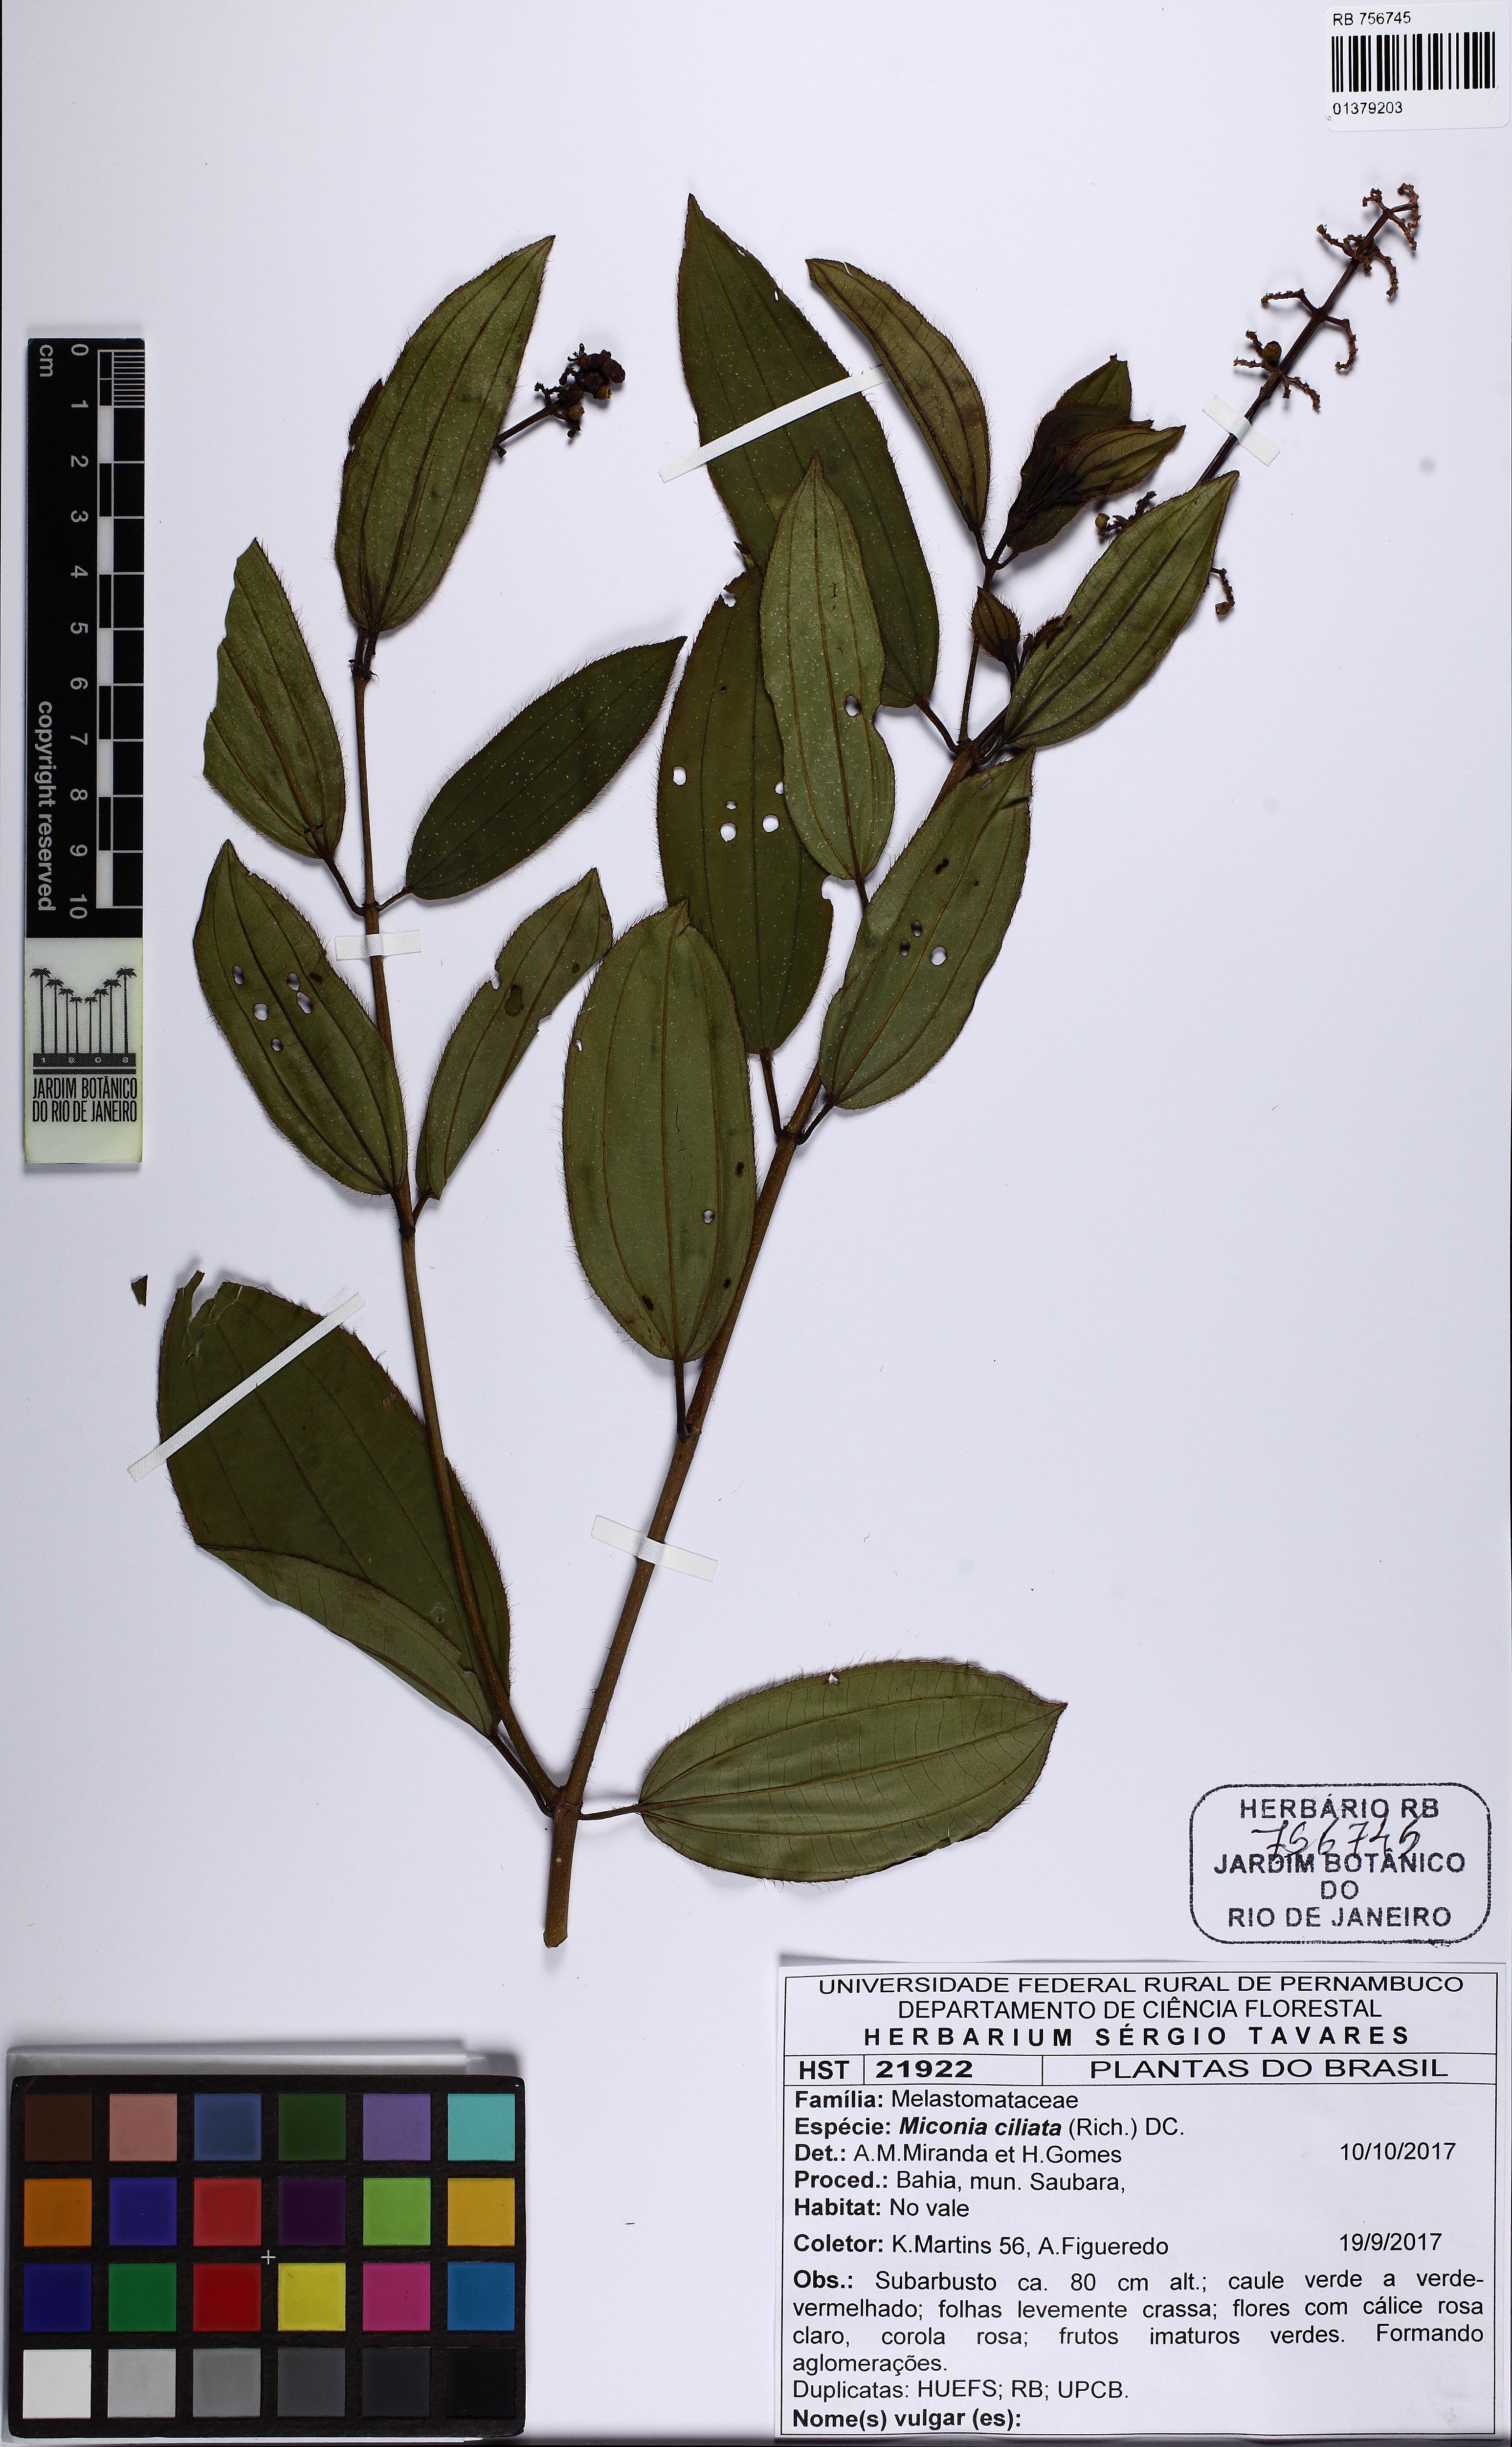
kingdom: Plantae
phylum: Tracheophyta
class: Magnoliopsida
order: Myrtales
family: Melastomataceae
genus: Miconia
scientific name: Miconia ciliata
